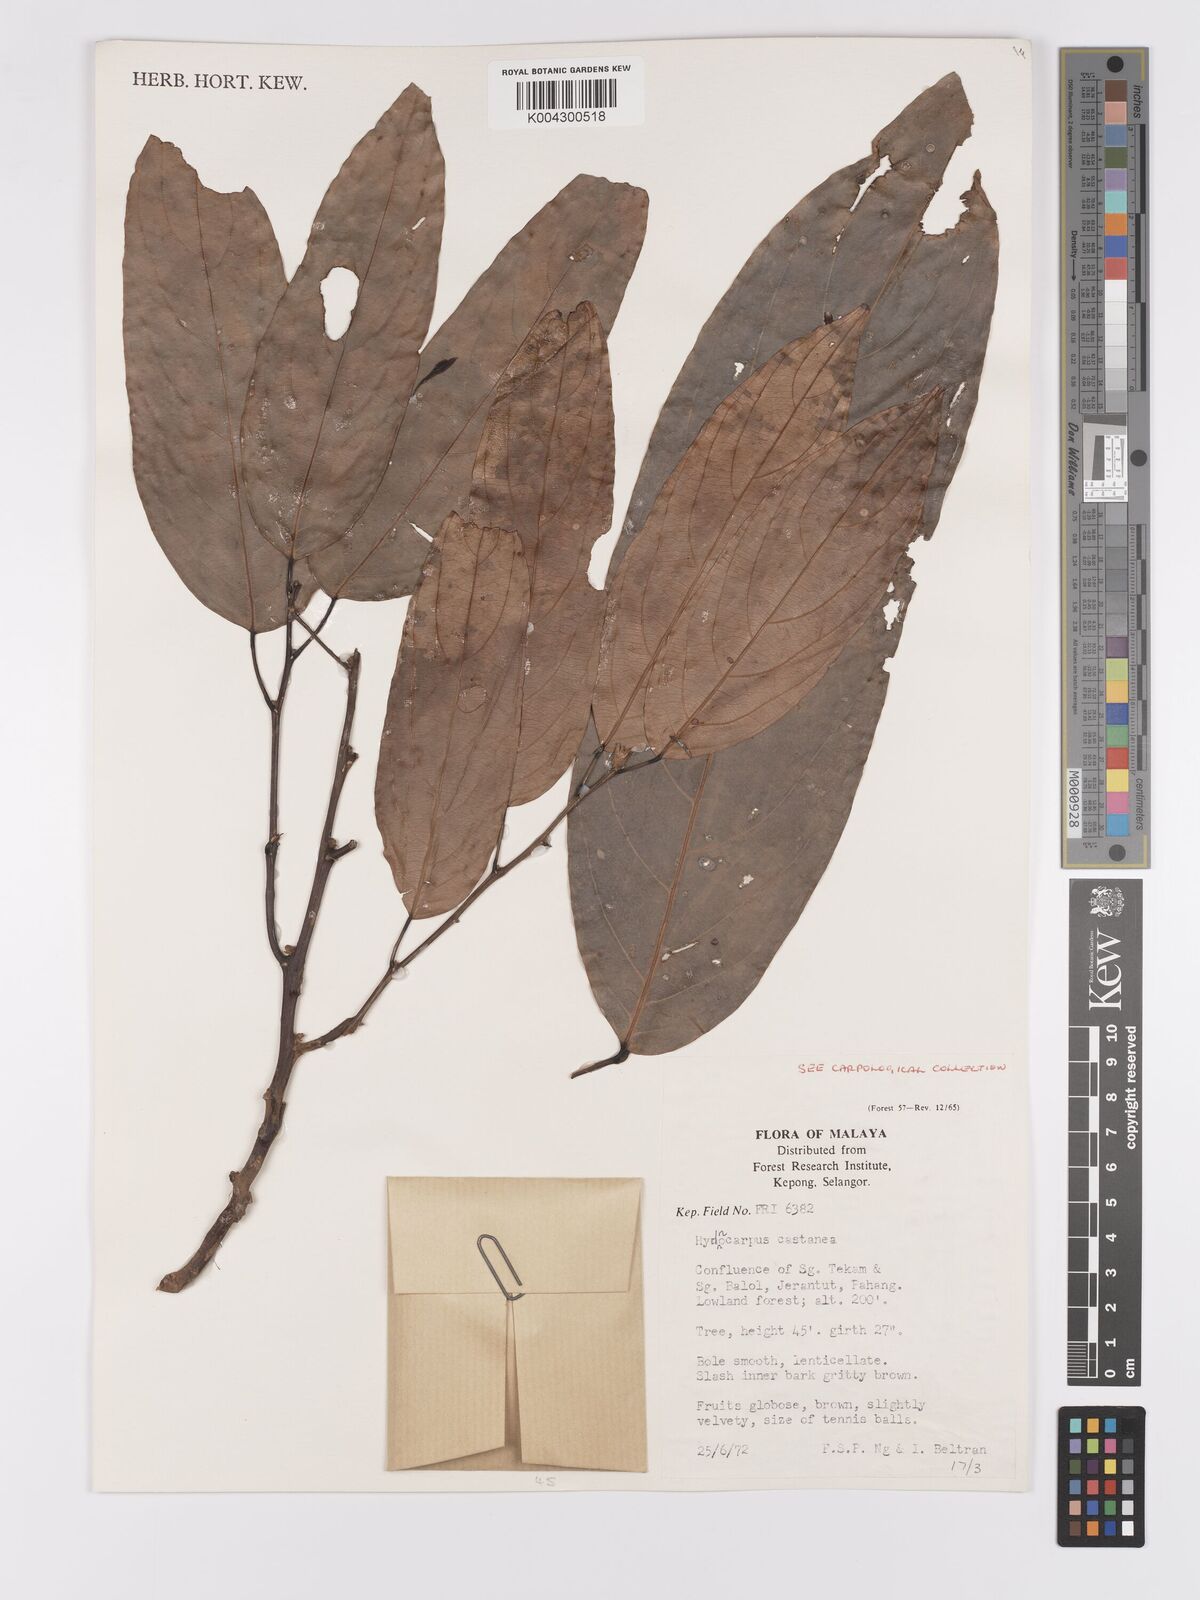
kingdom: Plantae
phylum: Tracheophyta
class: Magnoliopsida
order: Malpighiales
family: Achariaceae
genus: Hydnocarpus
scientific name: Hydnocarpus castaneus
